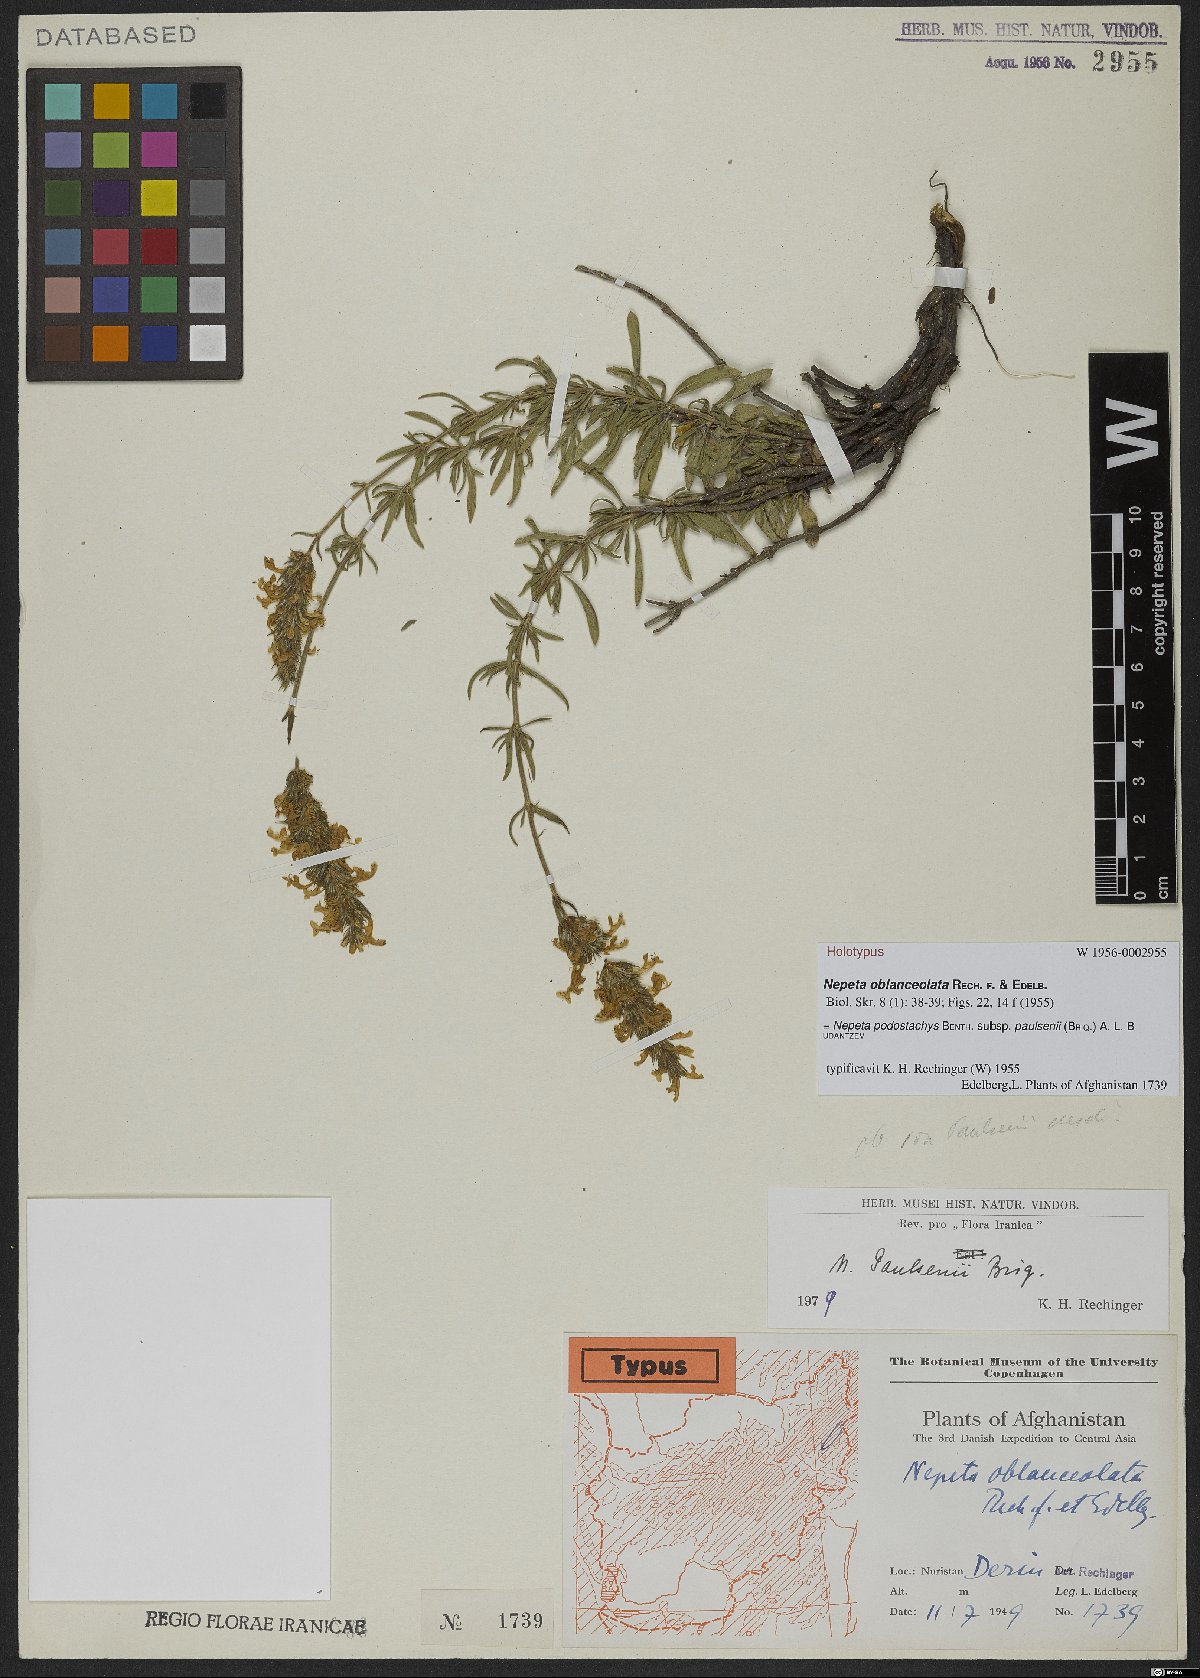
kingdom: Plantae
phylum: Tracheophyta
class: Magnoliopsida
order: Lamiales
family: Lamiaceae
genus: Nepeta
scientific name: Nepeta podostachys
